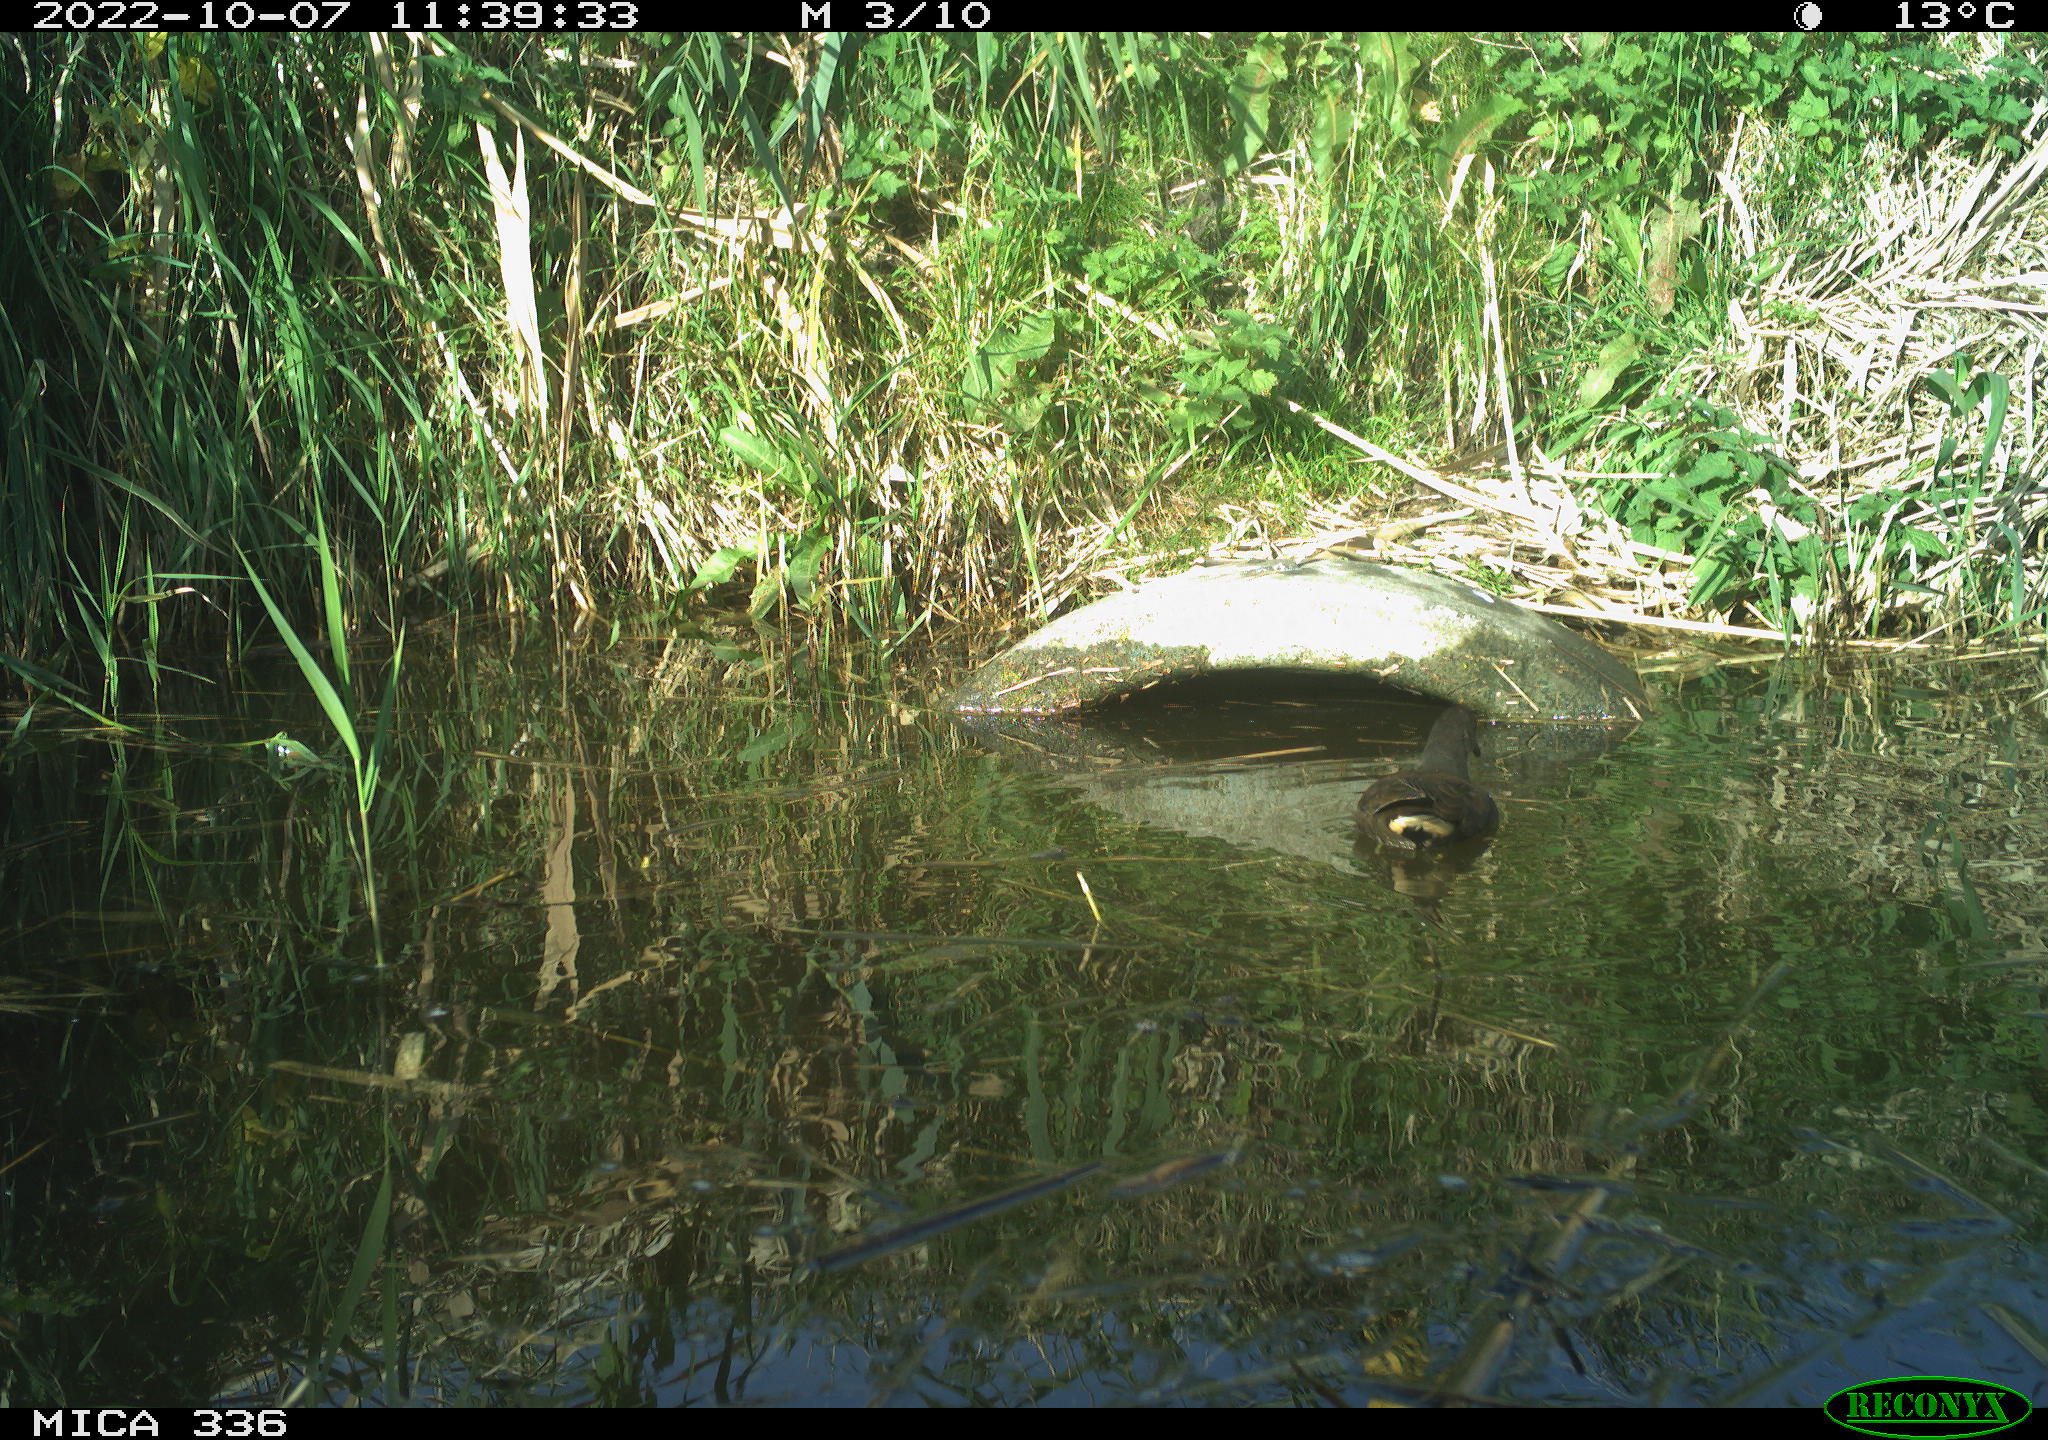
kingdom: Animalia
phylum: Chordata
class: Aves
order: Gruiformes
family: Rallidae
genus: Gallinula
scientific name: Gallinula chloropus
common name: Common moorhen
